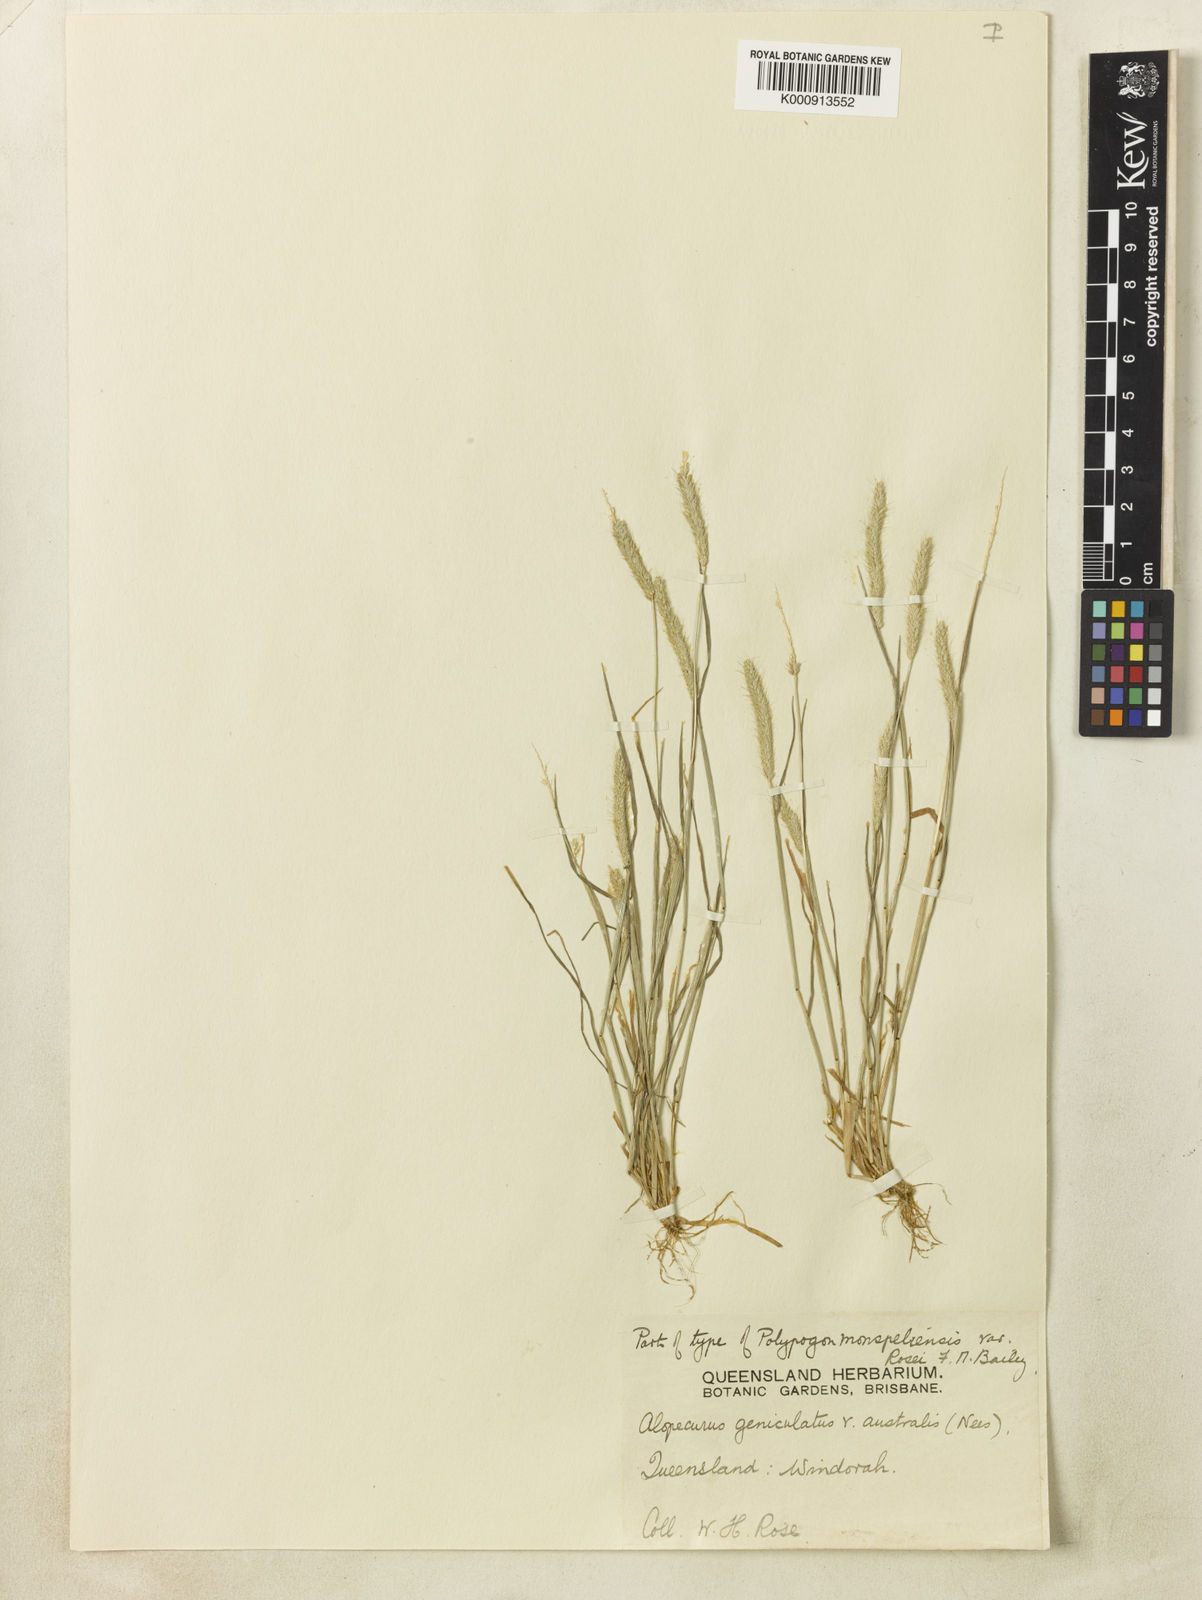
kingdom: Plantae
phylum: Tracheophyta
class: Liliopsida
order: Poales
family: Poaceae
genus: Alopecurus
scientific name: Alopecurus geniculatus
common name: Water foxtail
